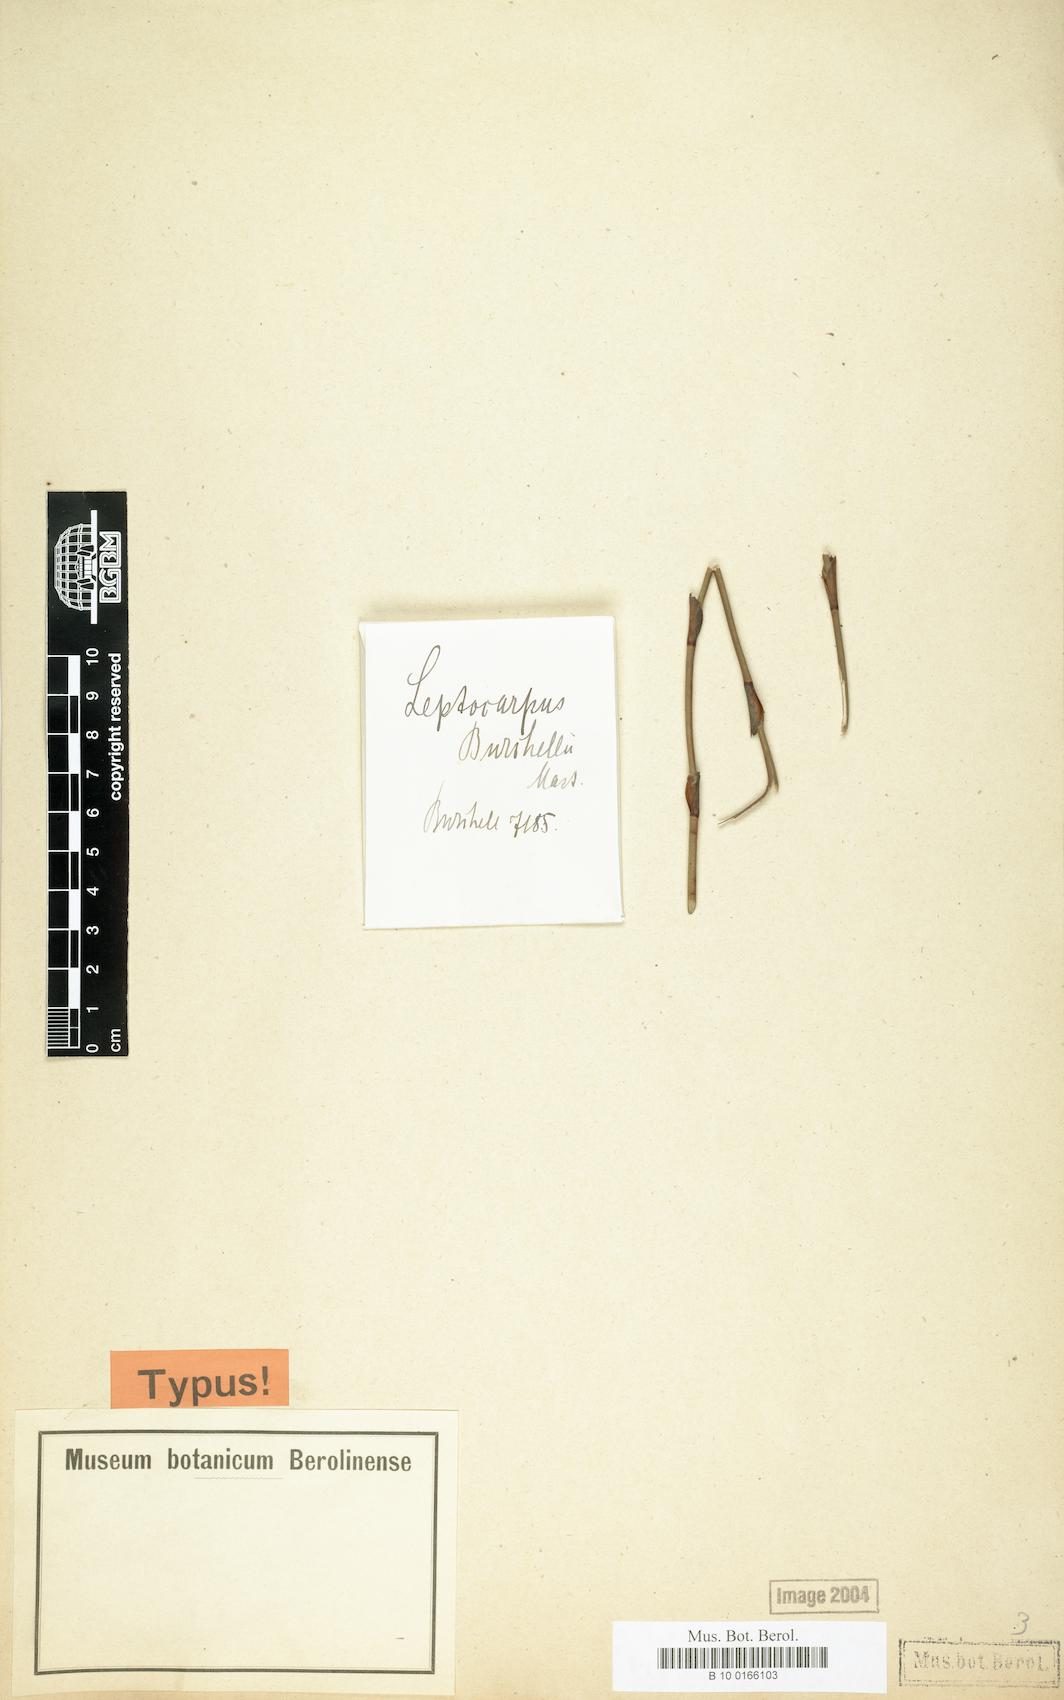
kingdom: Plantae
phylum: Tracheophyta
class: Liliopsida
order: Poales
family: Restionaceae
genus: Restio
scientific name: Restio albotuberculatus
